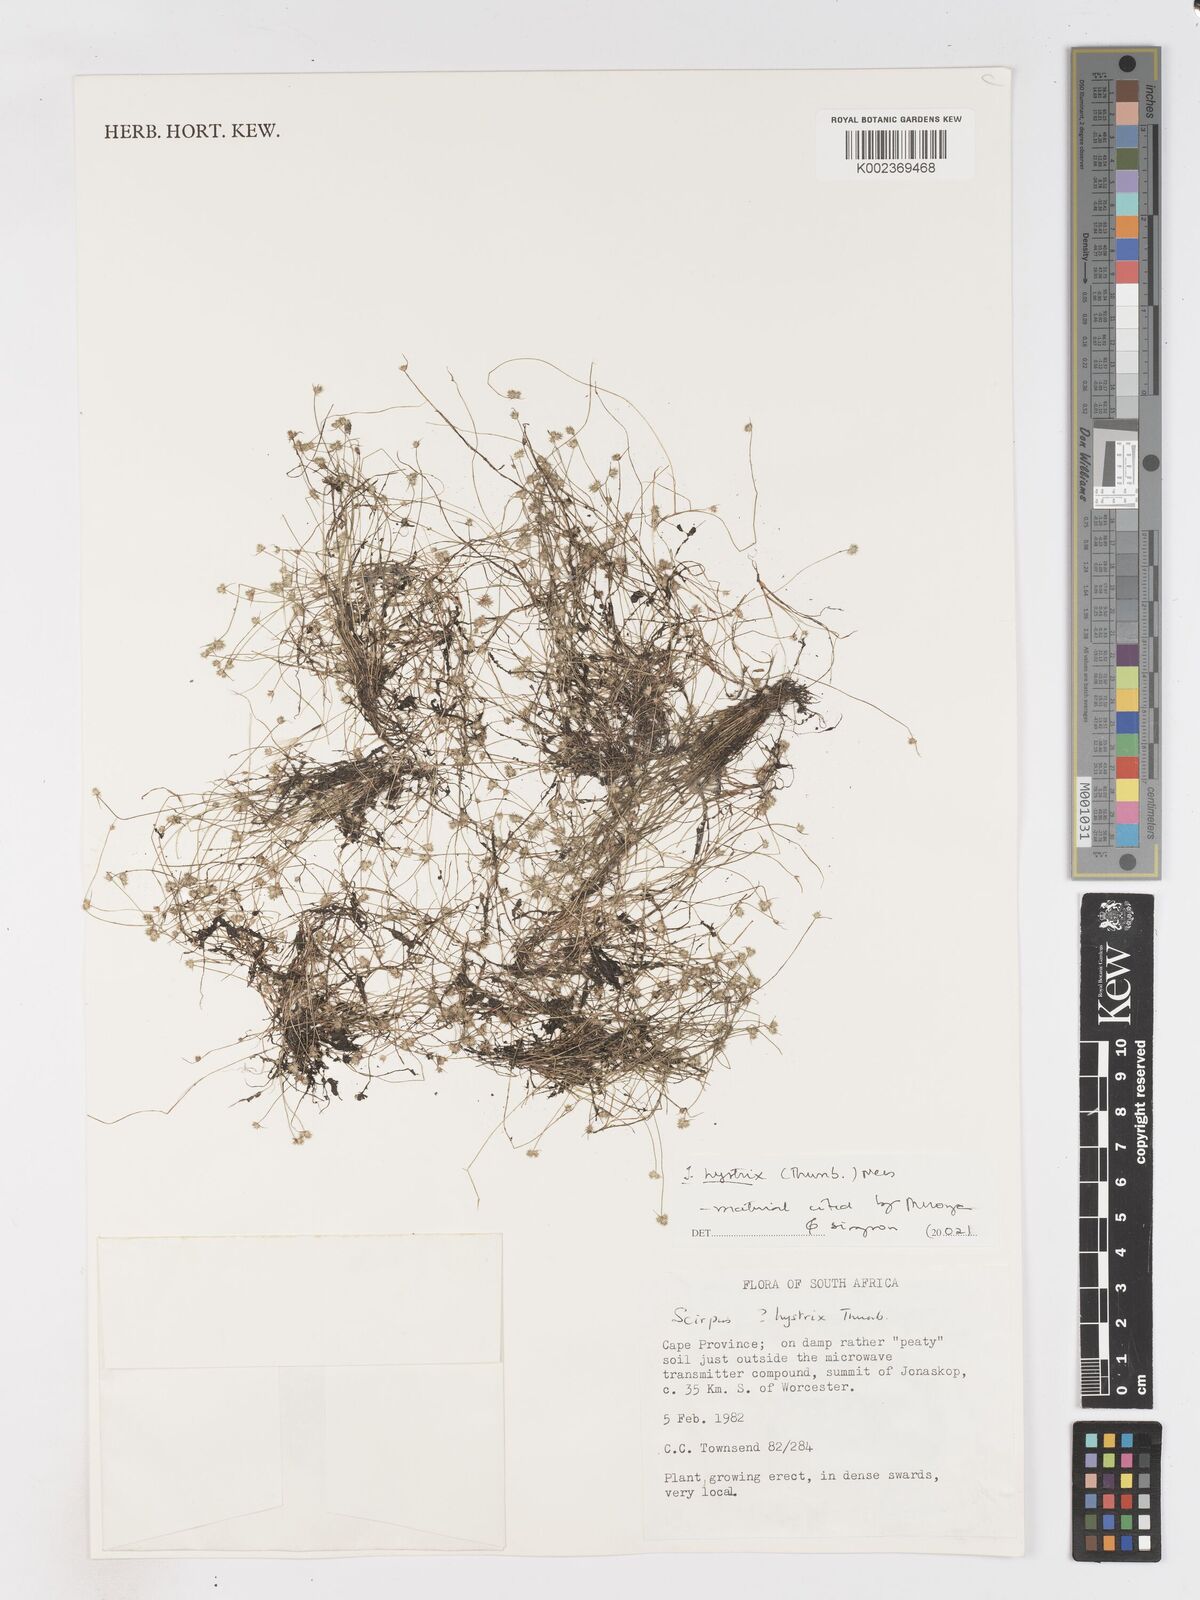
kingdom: Plantae
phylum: Tracheophyta
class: Liliopsida
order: Poales
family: Cyperaceae
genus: Isolepis
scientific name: Isolepis hystrix
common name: Bottlebrush bulrush
